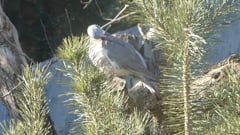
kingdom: Animalia
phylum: Chordata
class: Aves
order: Columbiformes
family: Columbidae
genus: Columba
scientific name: Columba palumbus
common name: Common wood pigeon
